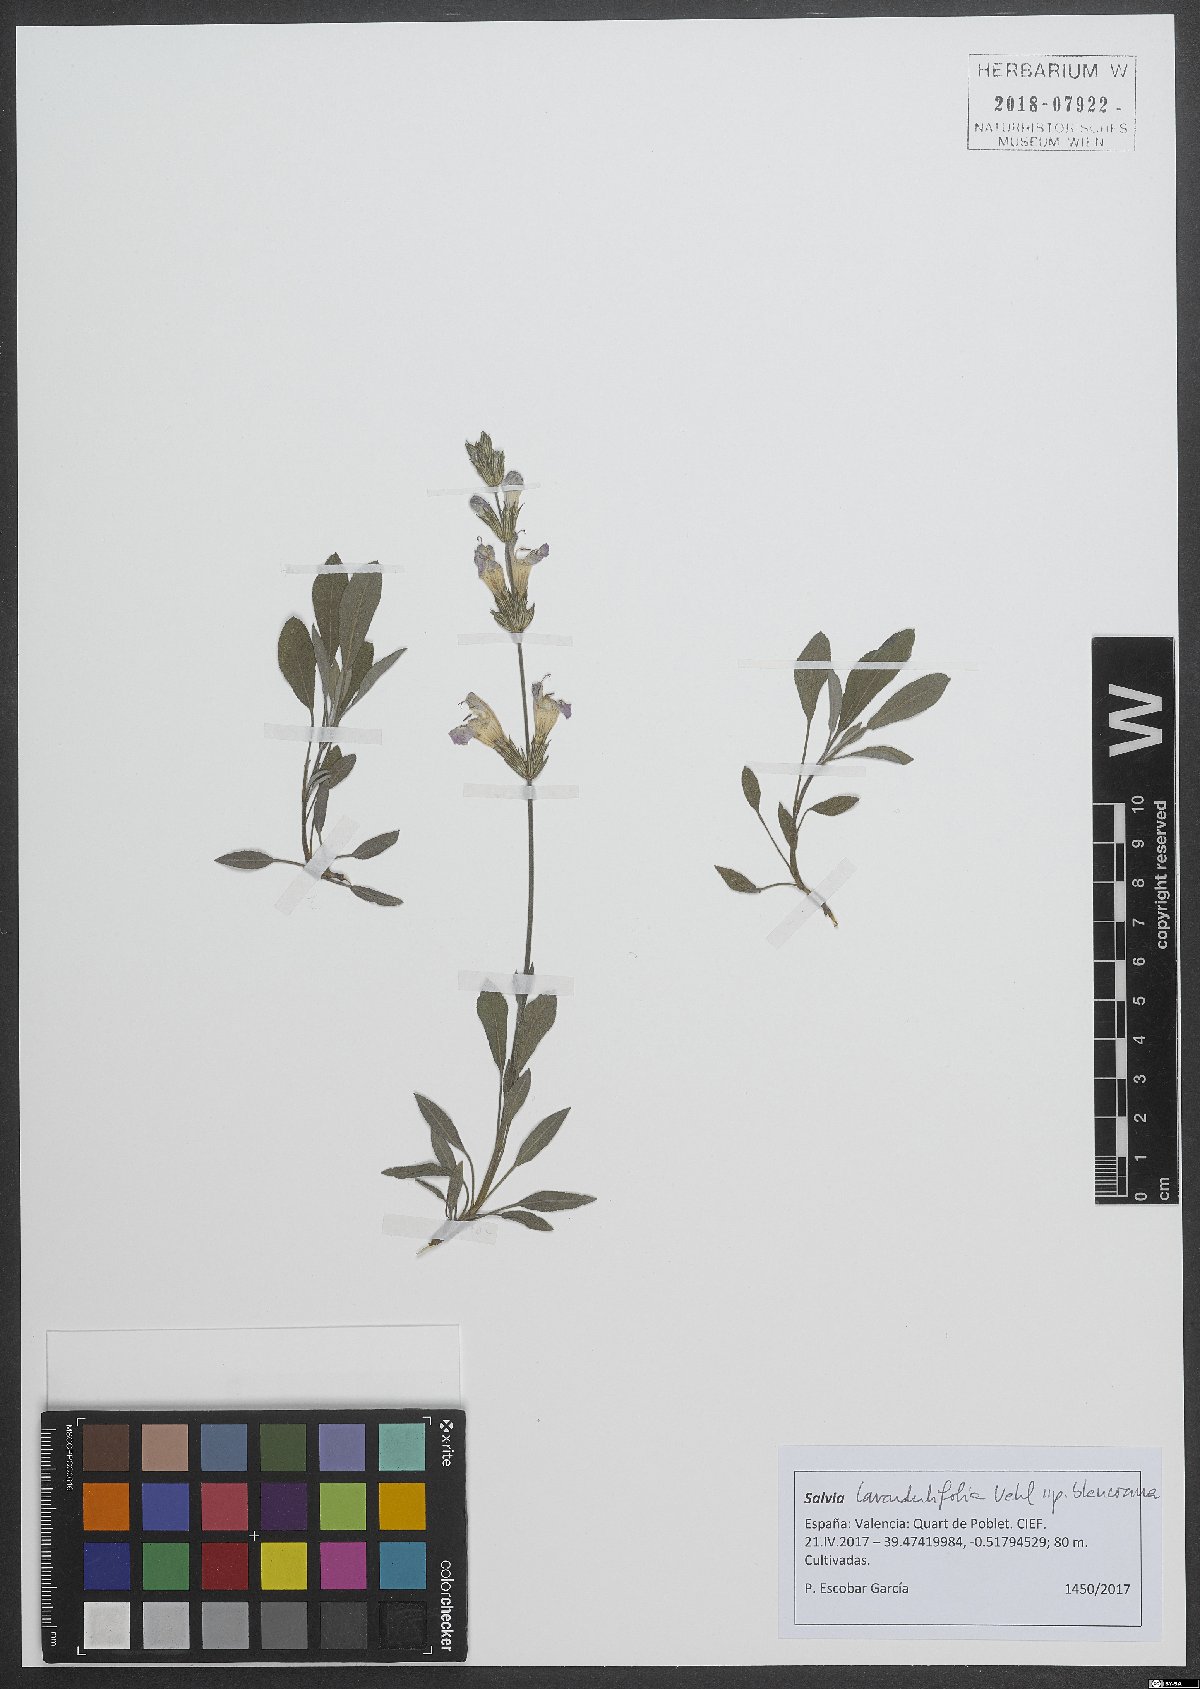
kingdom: Plantae
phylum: Tracheophyta
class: Magnoliopsida
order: Lamiales
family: Lamiaceae
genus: Salvia
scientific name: Salvia blancoana
